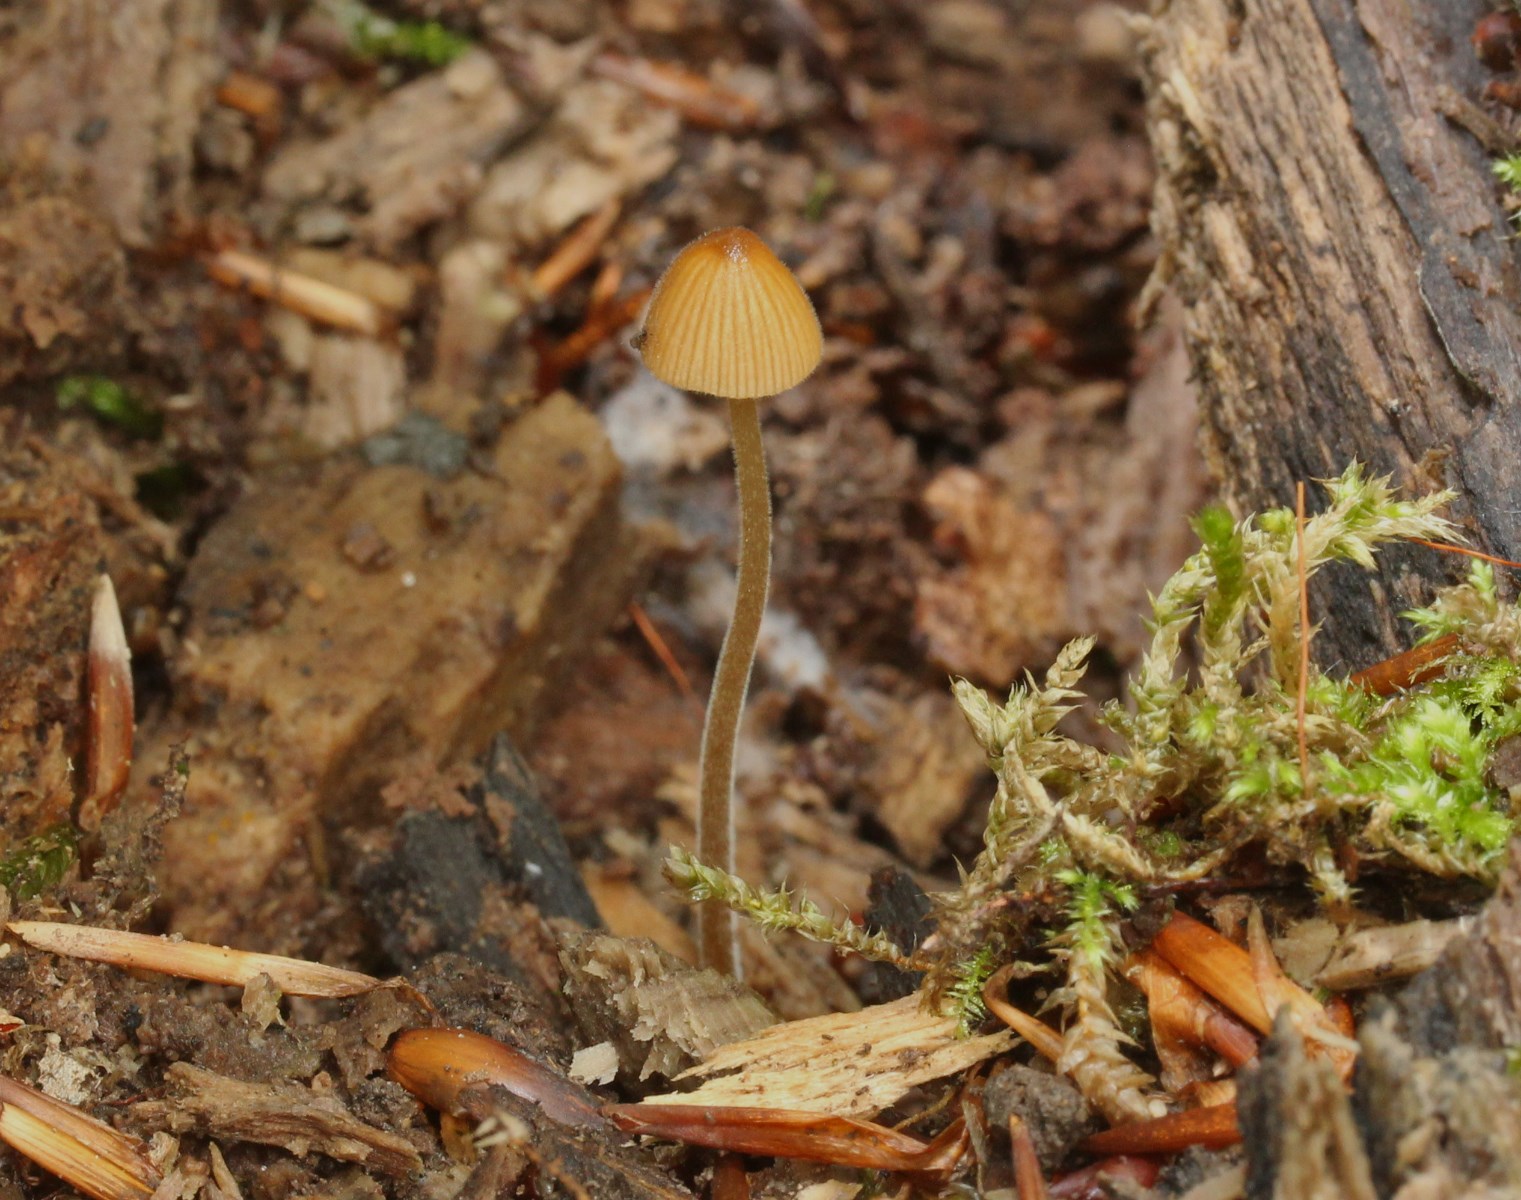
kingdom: Fungi
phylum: Basidiomycota
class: Agaricomycetes
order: Agaricales
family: Bolbitiaceae
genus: Conocybe
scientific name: Conocybe
